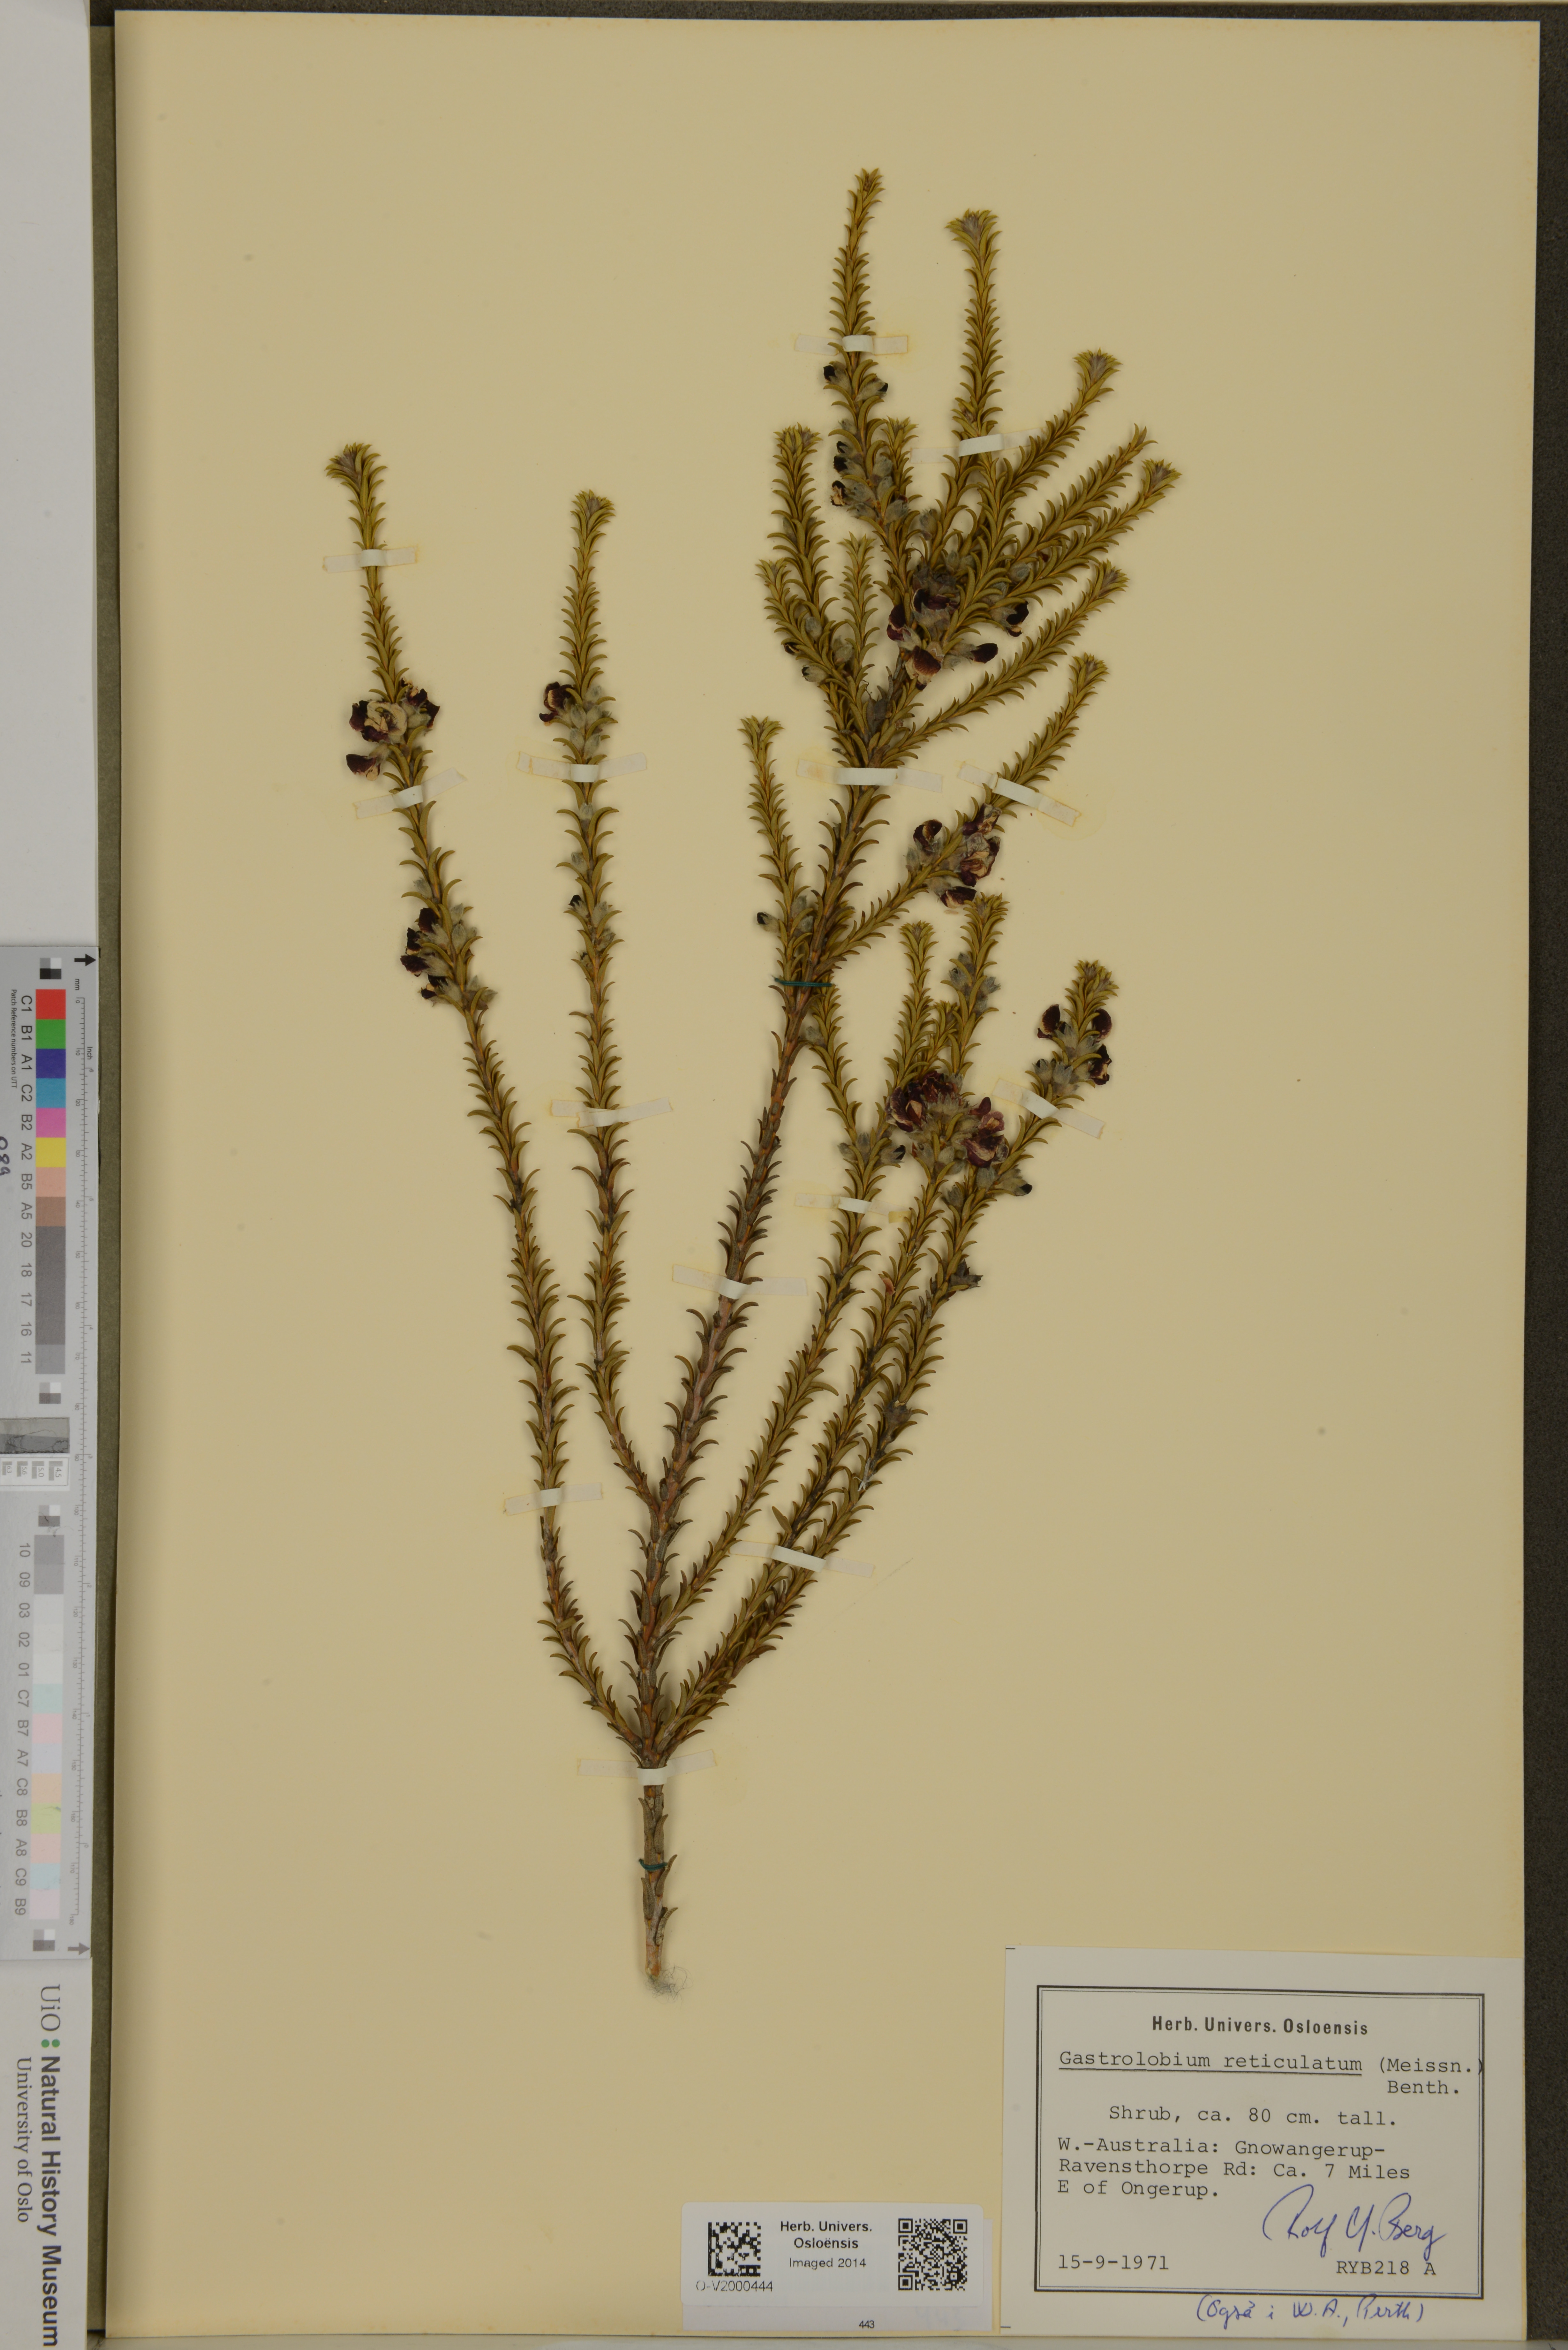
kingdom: Plantae
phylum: Tracheophyta
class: Magnoliopsida
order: Fabales
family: Fabaceae
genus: Gastrolobium
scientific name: Gastrolobium reticulatum
